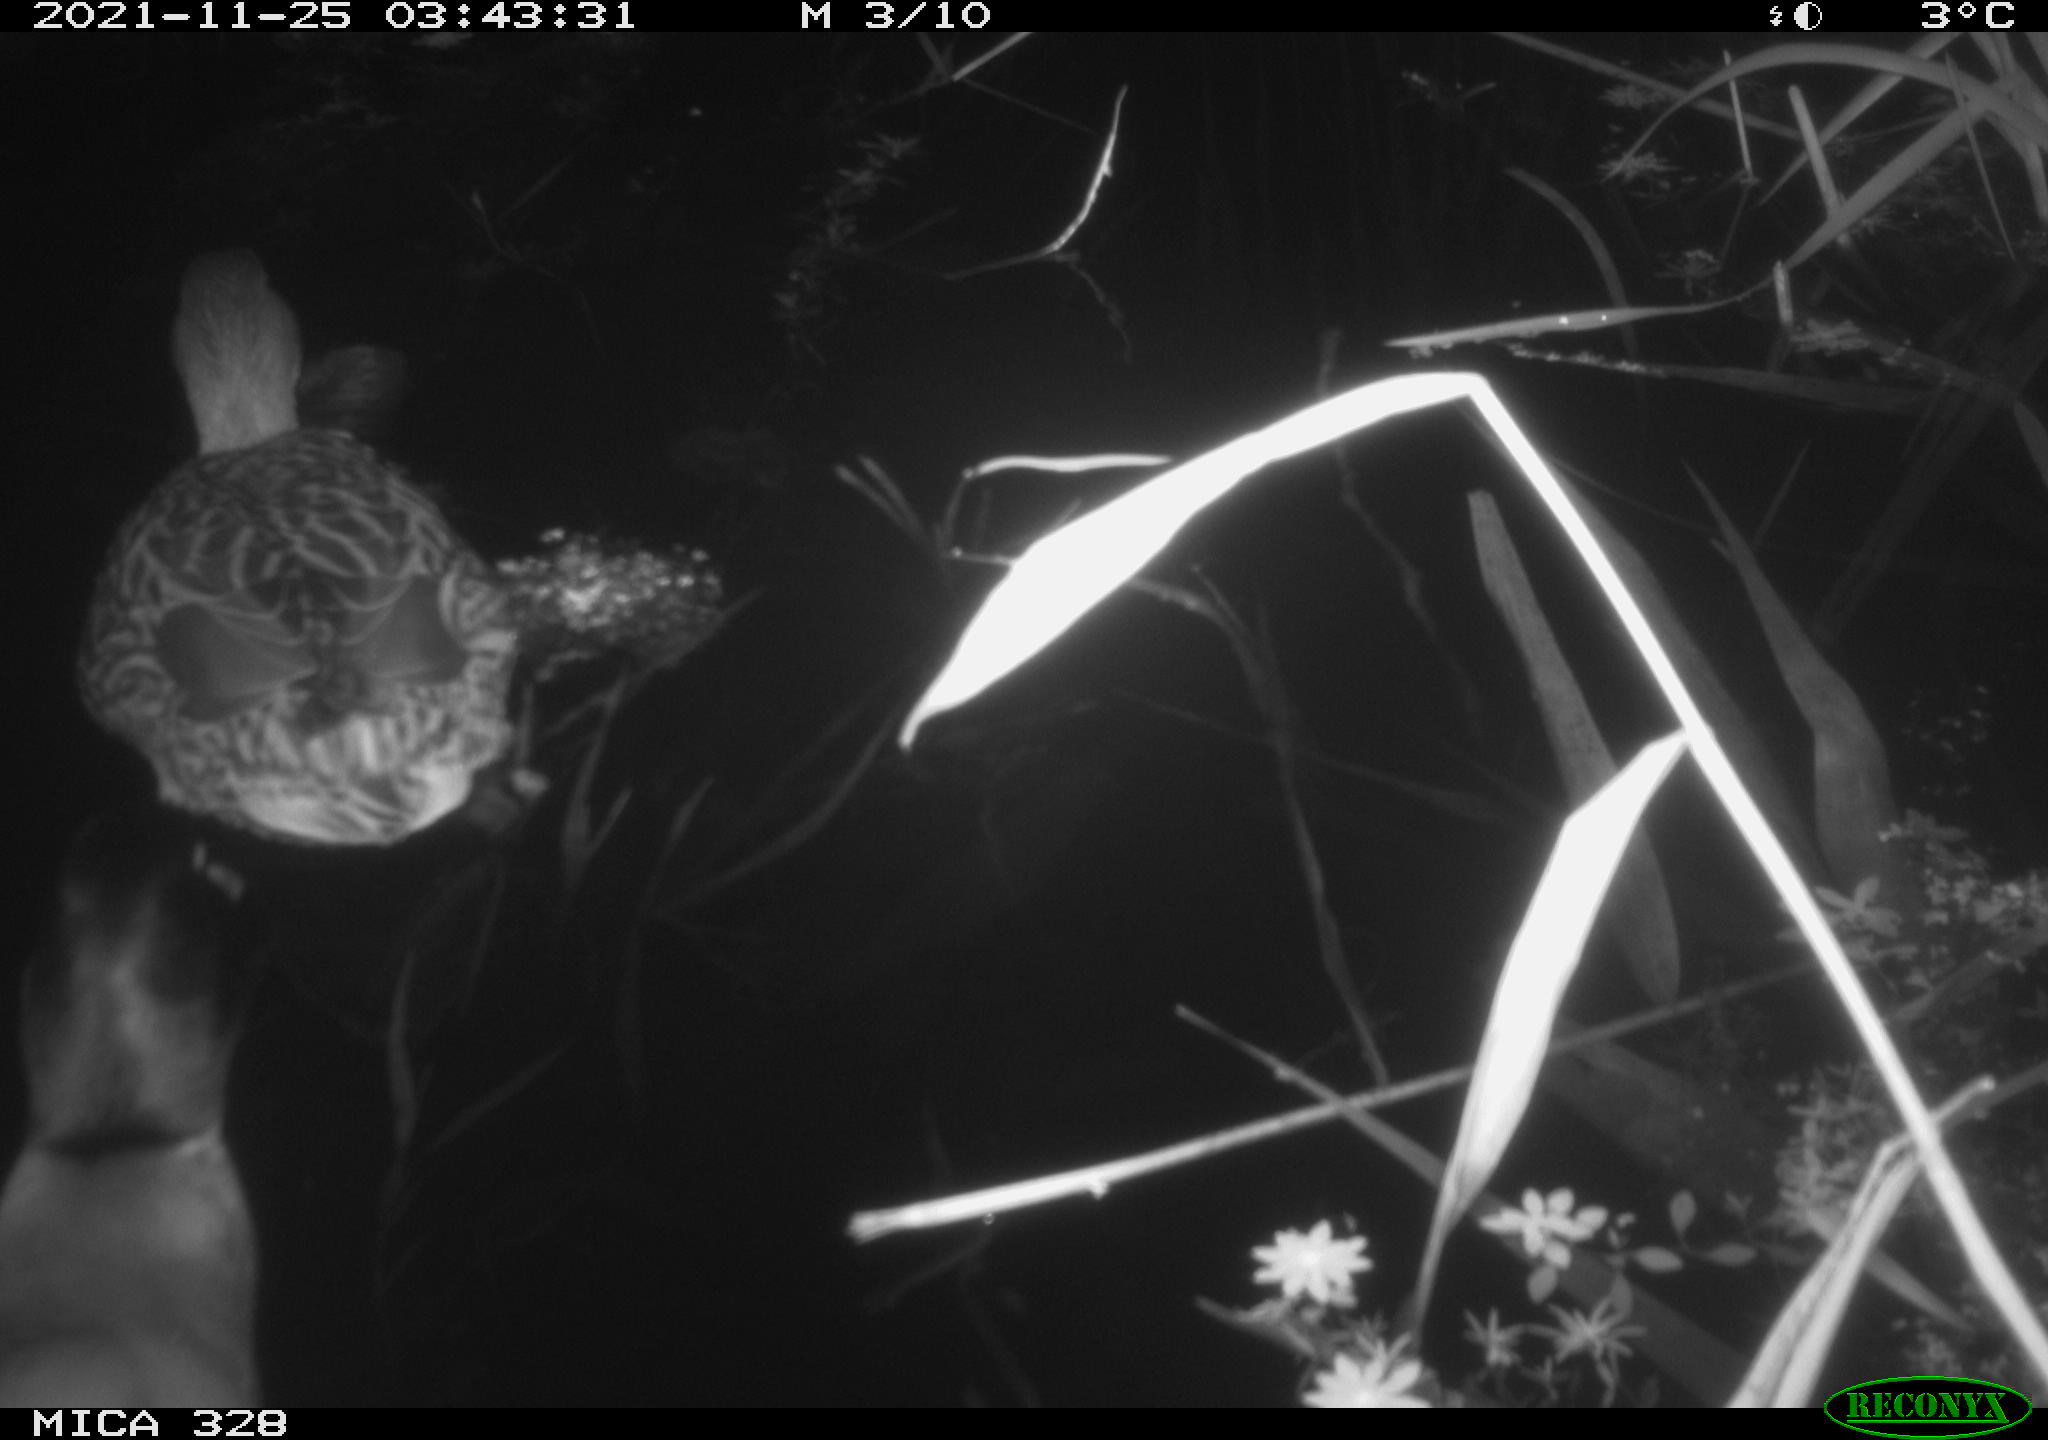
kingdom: Animalia
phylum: Chordata
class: Aves
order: Anseriformes
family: Anatidae
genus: Anas
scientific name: Anas platyrhynchos
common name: Mallard
